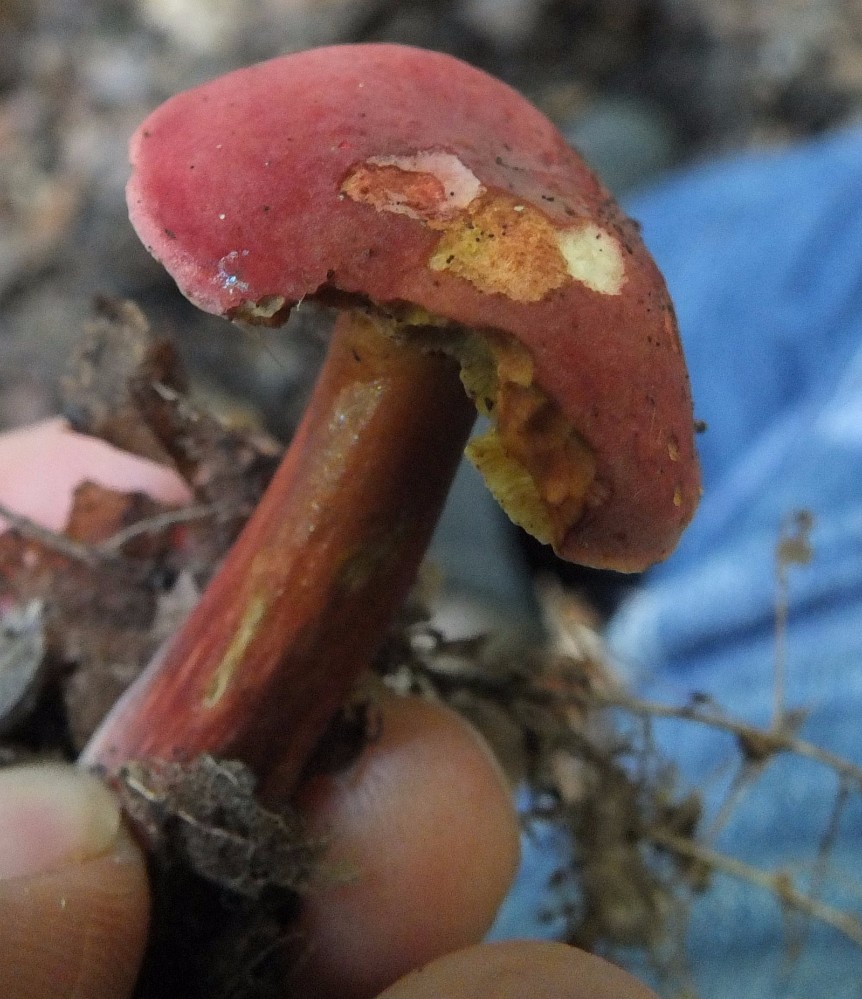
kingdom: Fungi
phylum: Basidiomycota
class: Agaricomycetes
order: Boletales
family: Boletaceae
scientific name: Boletaceae
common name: rørhatfamilien
